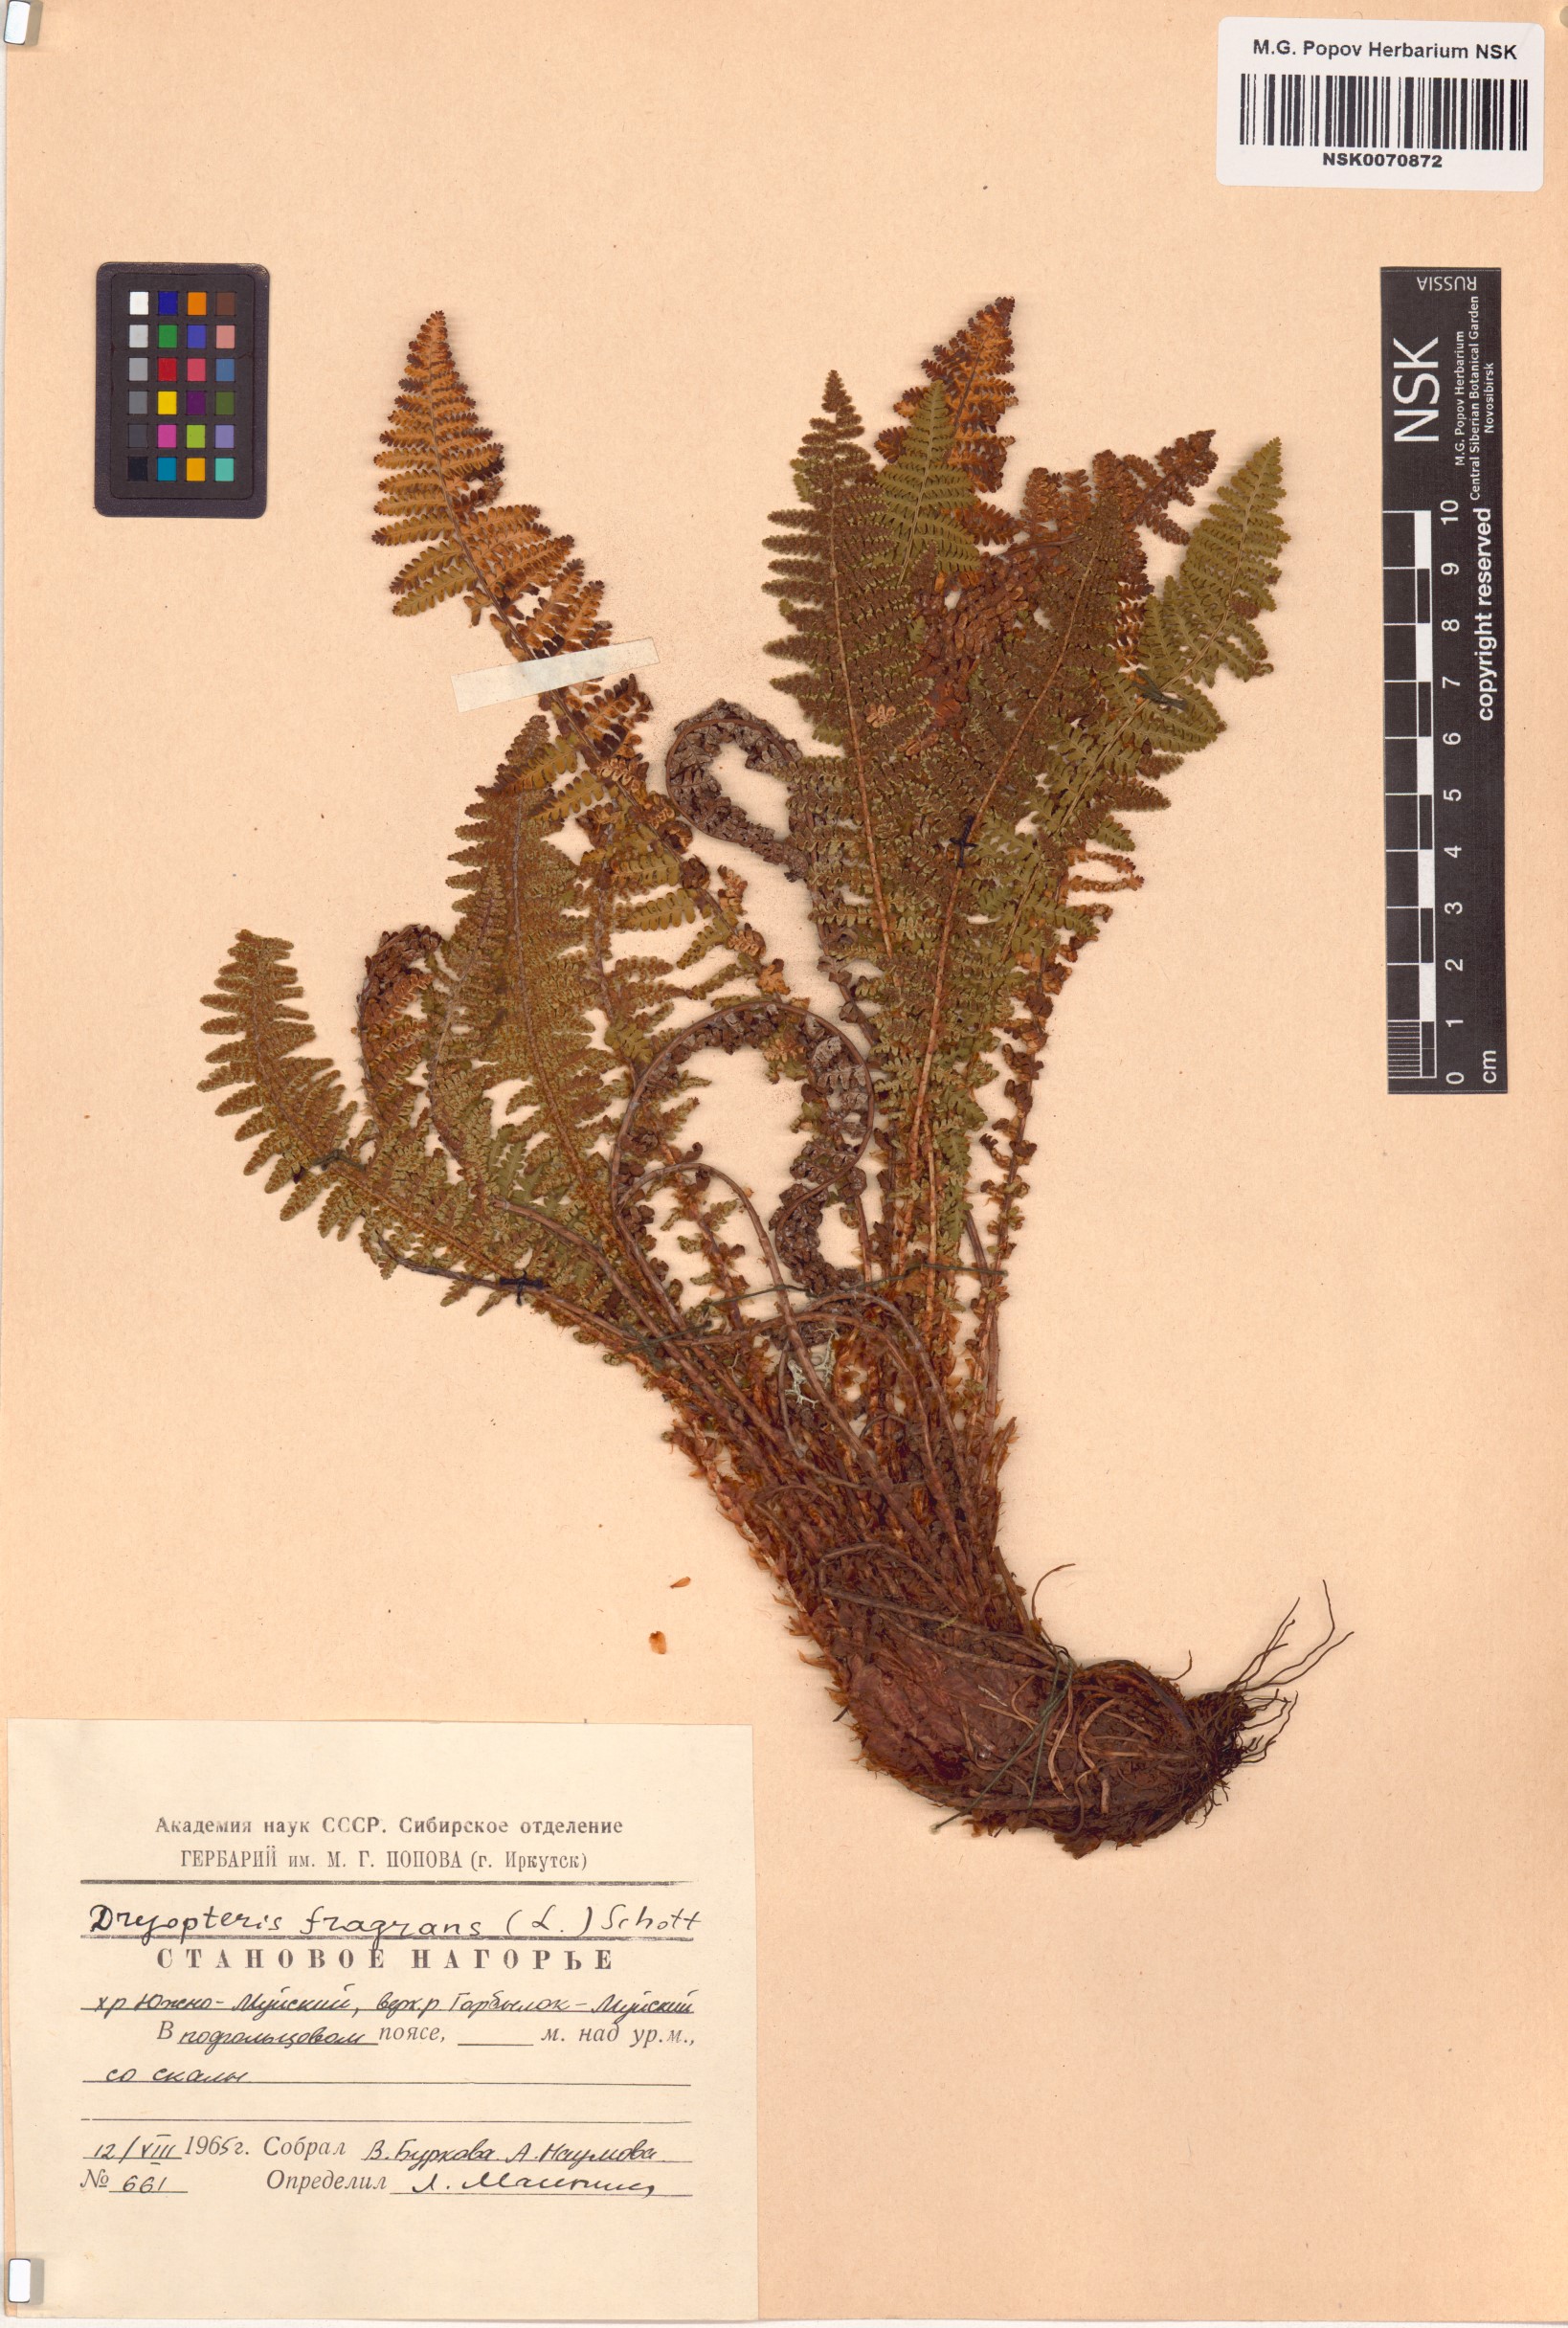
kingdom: Plantae
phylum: Tracheophyta
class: Polypodiopsida
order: Polypodiales
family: Dryopteridaceae
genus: Dryopteris
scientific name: Dryopteris fragrans
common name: Fragrant wood fern
